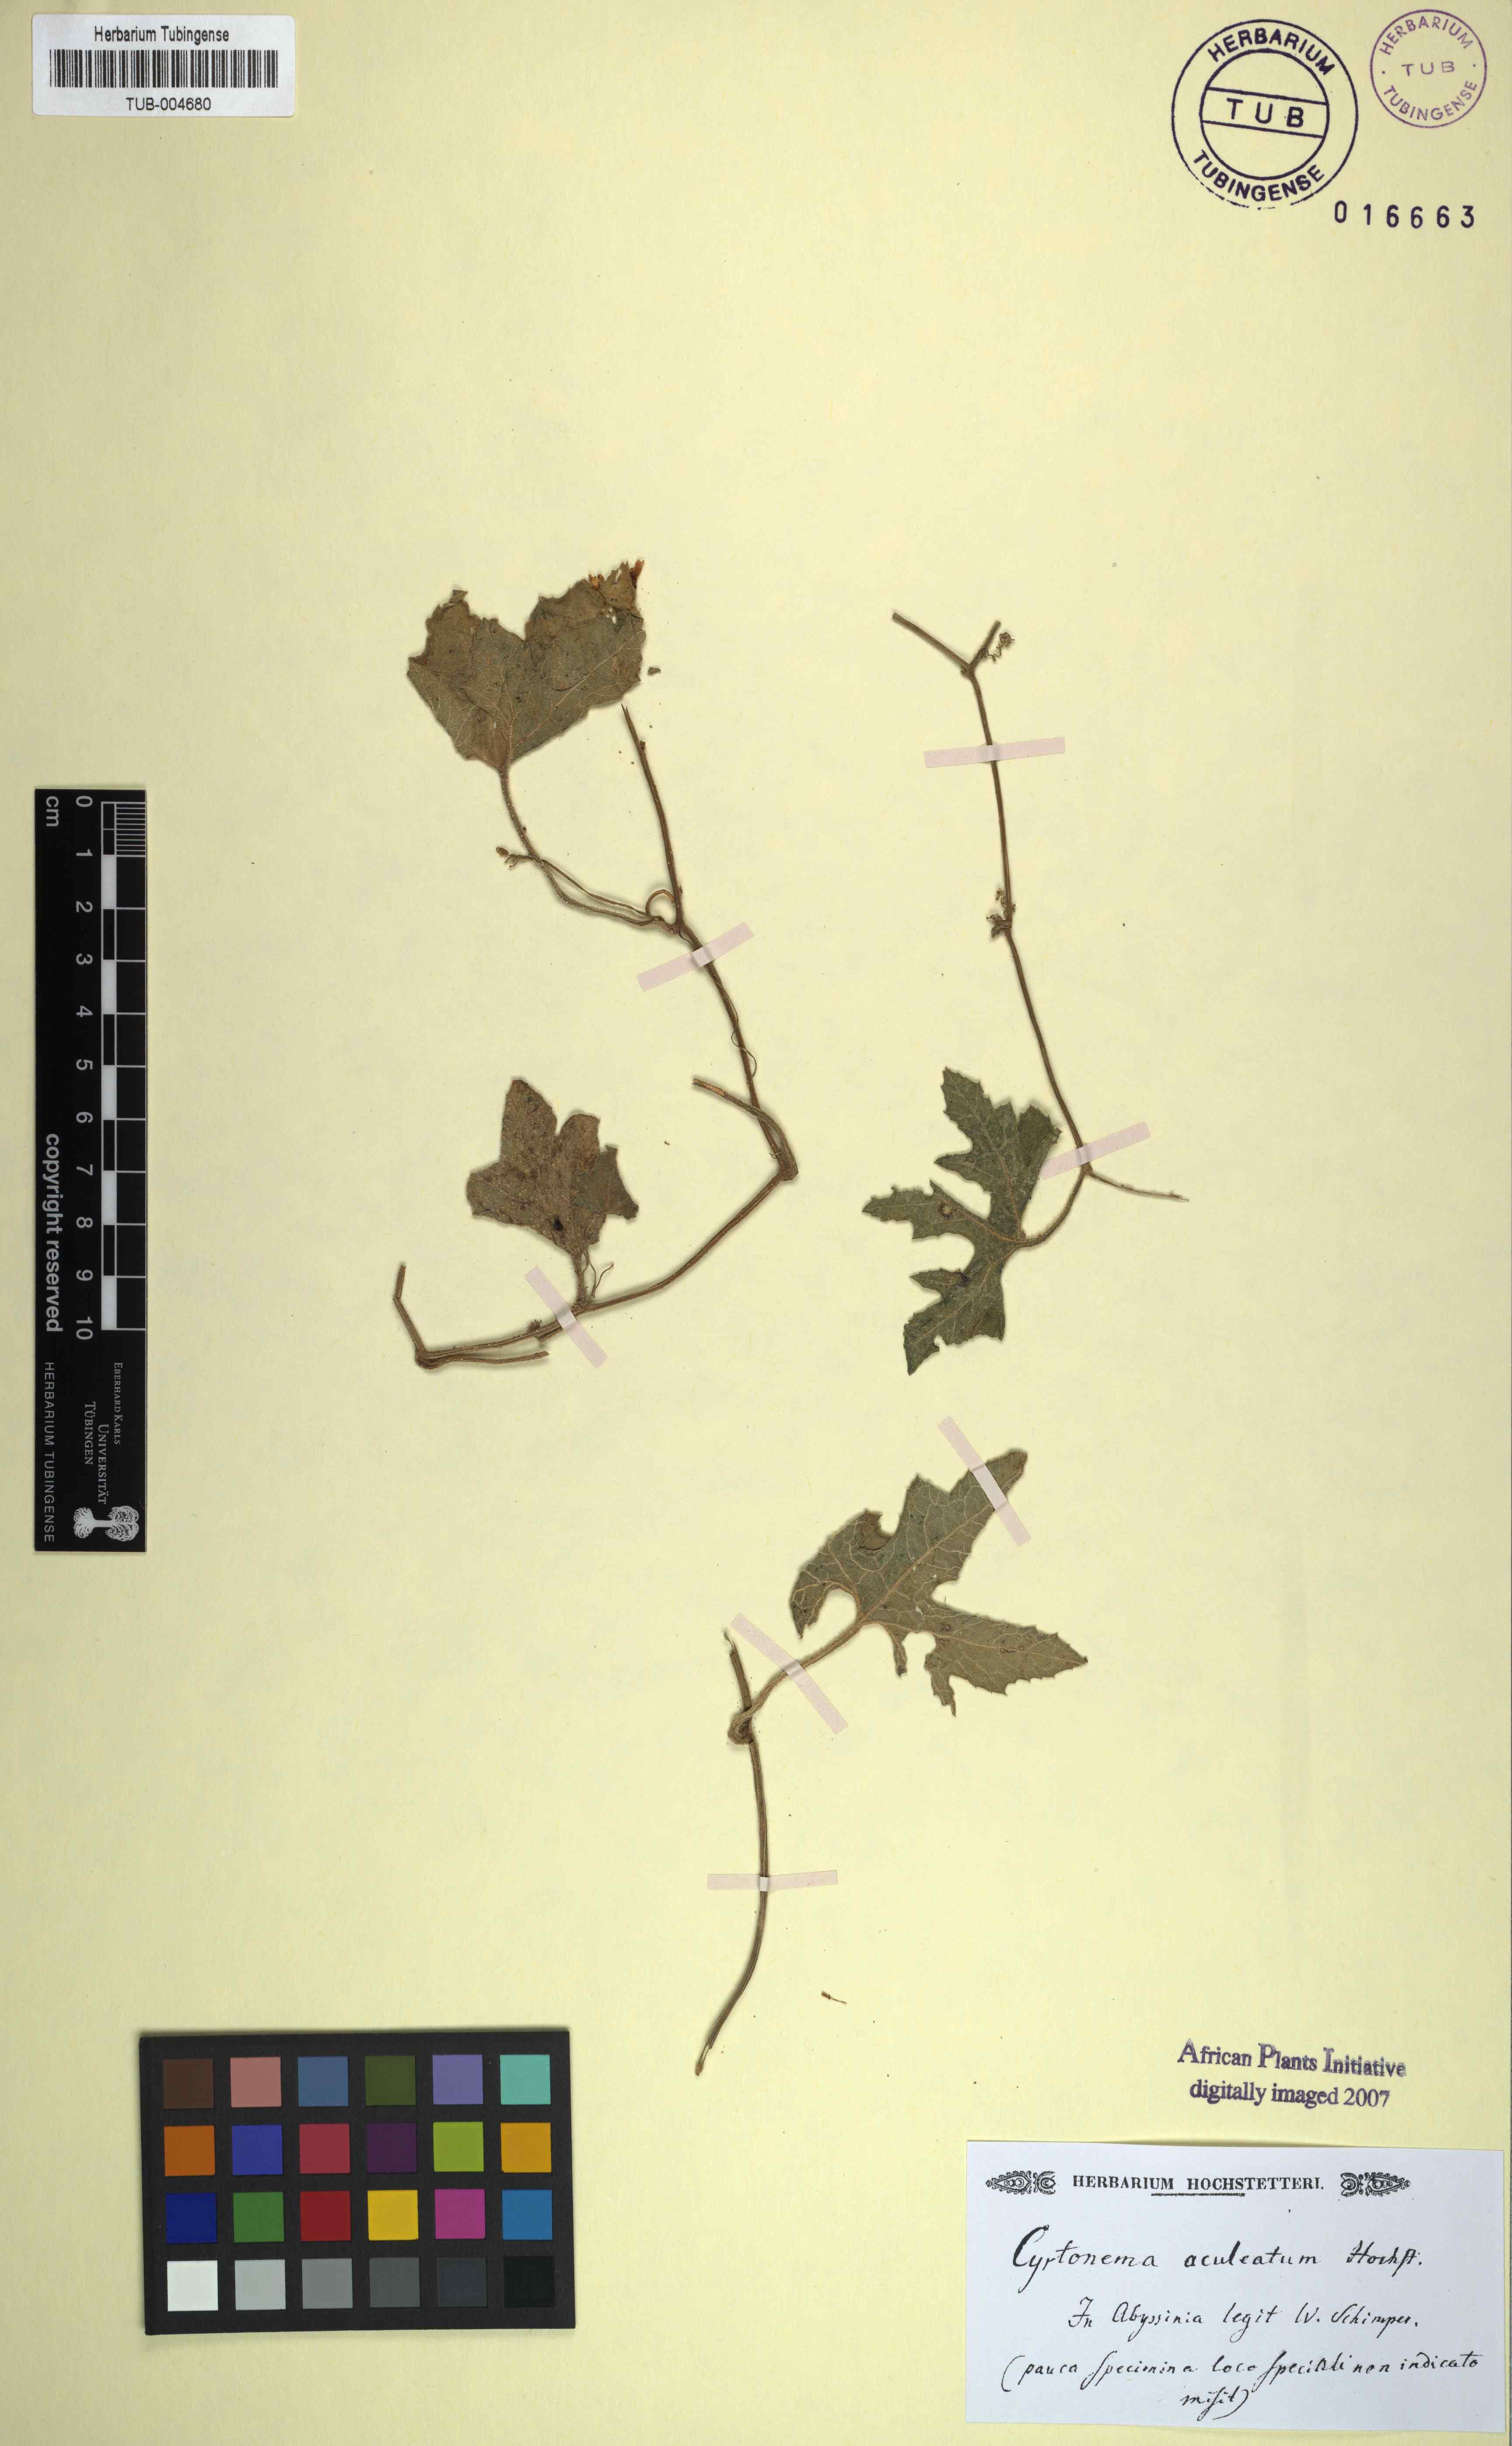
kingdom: Plantae
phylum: Tracheophyta
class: Magnoliopsida
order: Cucurbitales
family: Cucurbitaceae
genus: Kedrostis
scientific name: Kedrostis
